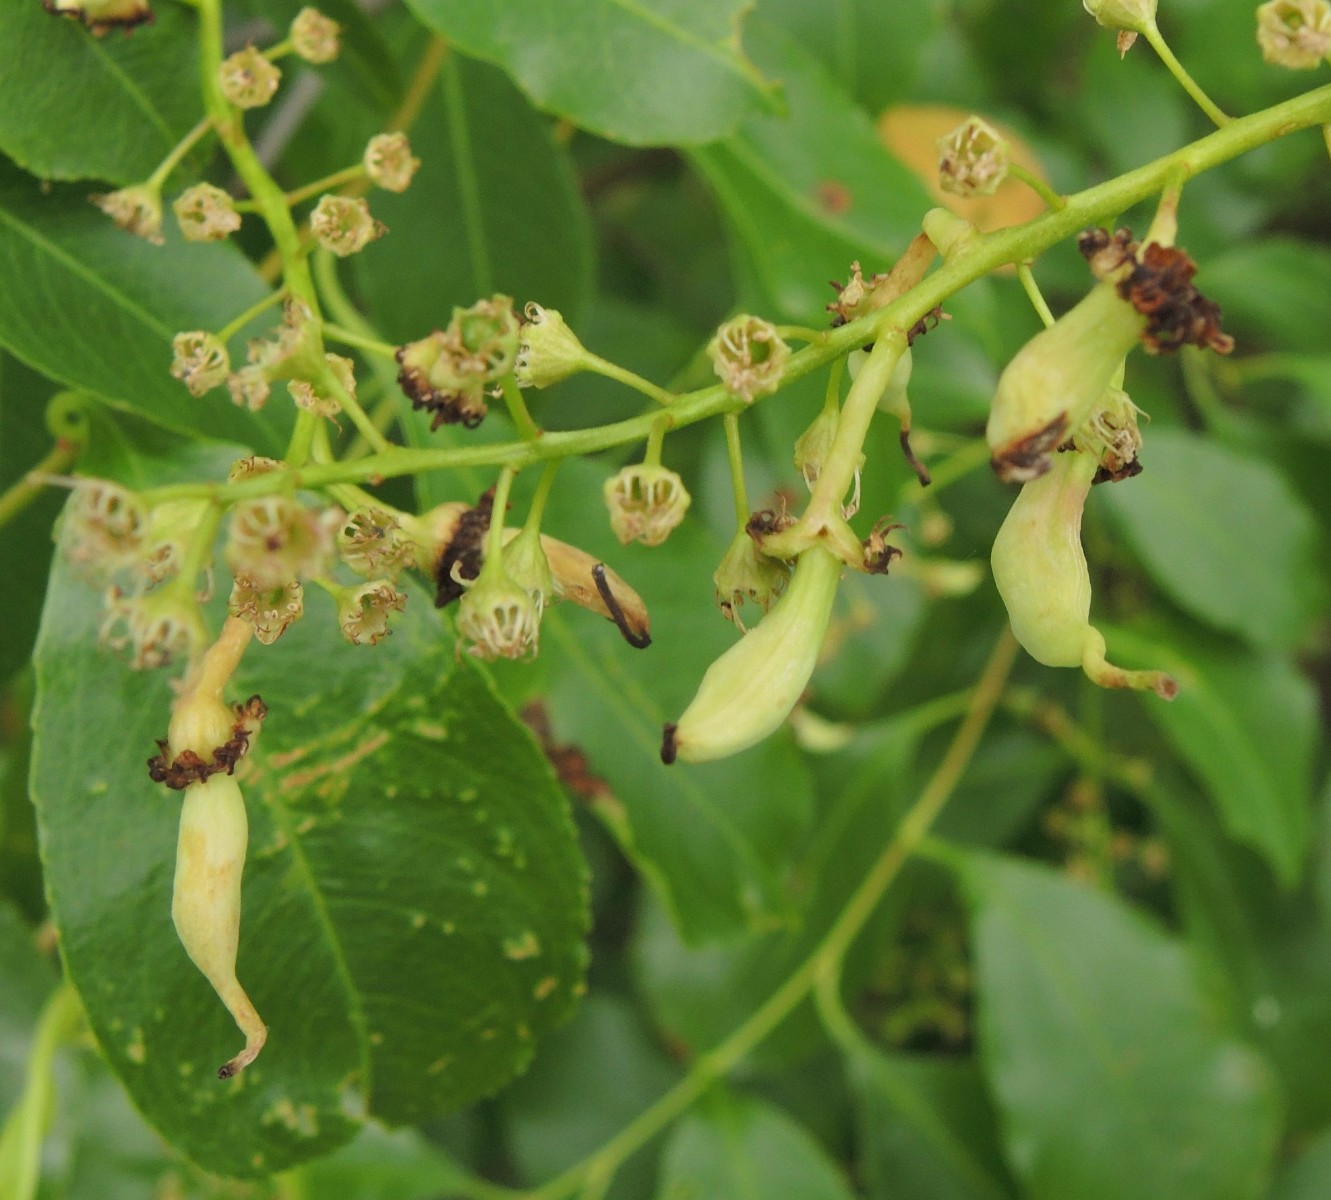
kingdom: Fungi
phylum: Ascomycota
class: Taphrinomycetes
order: Taphrinales
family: Taphrinaceae
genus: Taphrina
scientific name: Taphrina padi
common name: Bird cherry pocket
